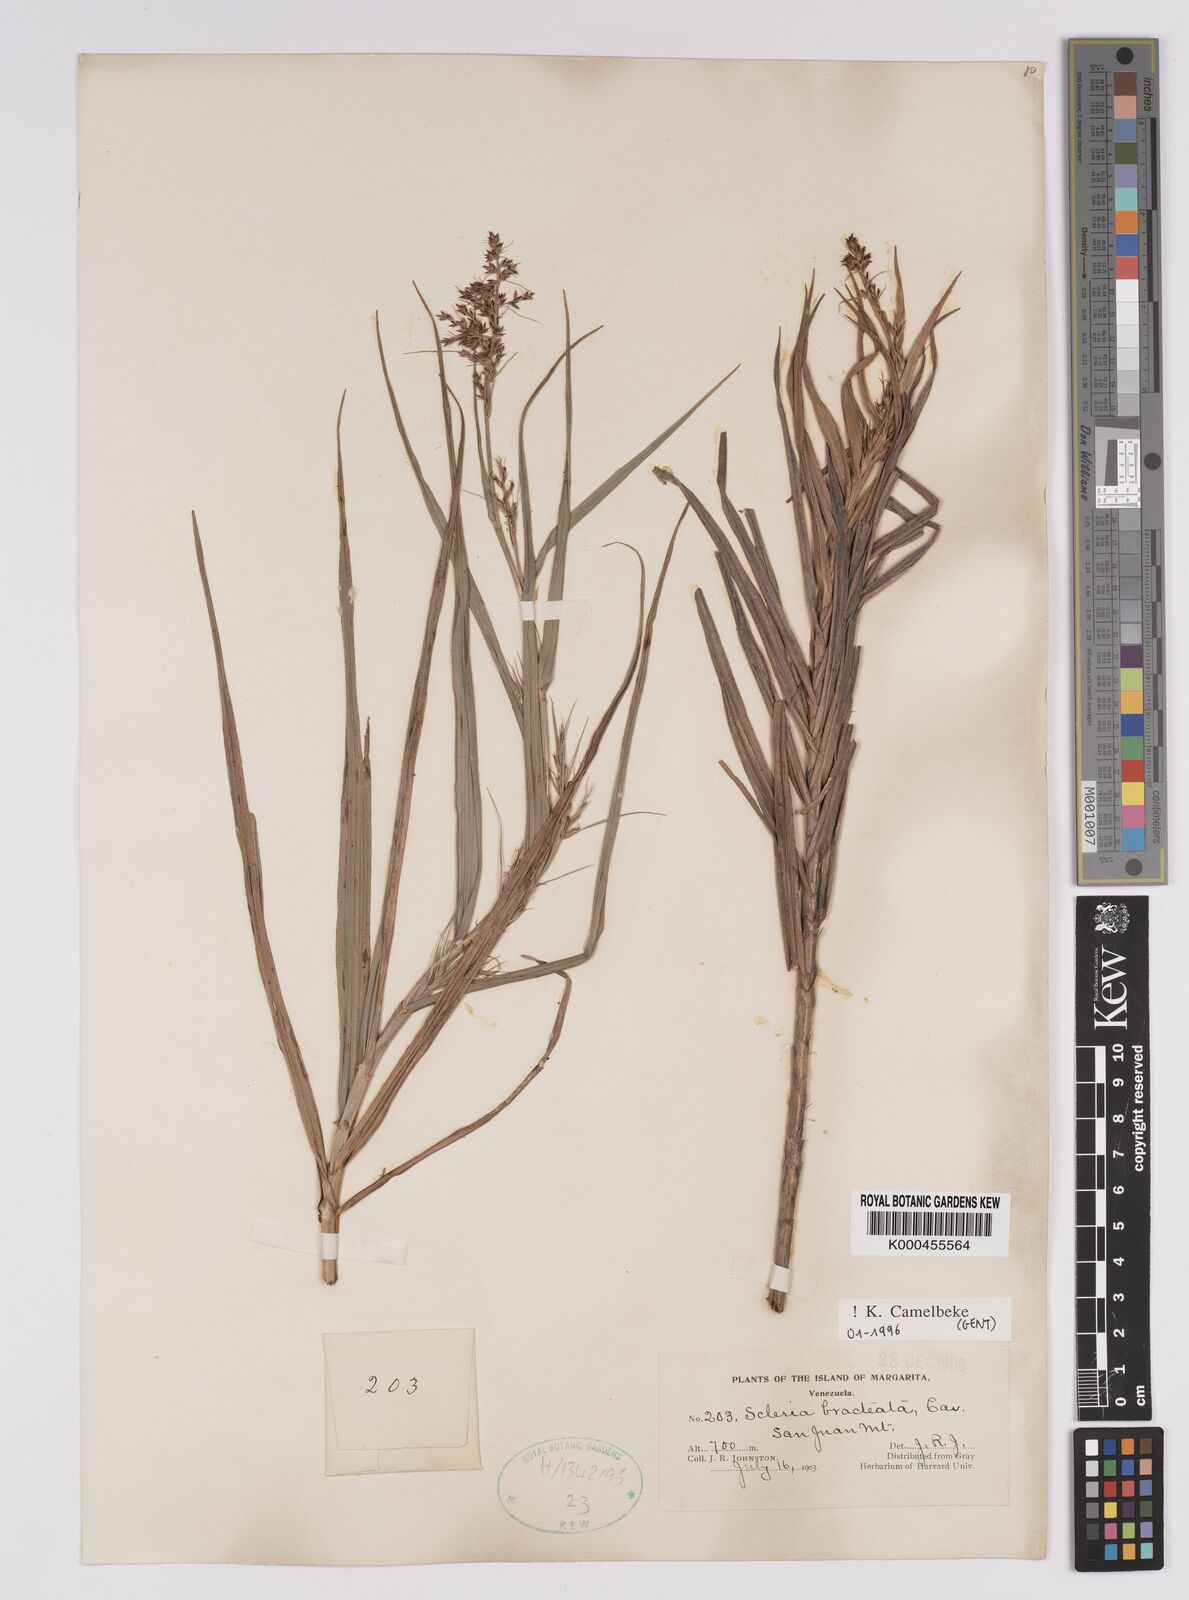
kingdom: Plantae
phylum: Tracheophyta
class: Liliopsida
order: Poales
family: Cyperaceae
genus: Scleria
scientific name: Scleria bracteata
